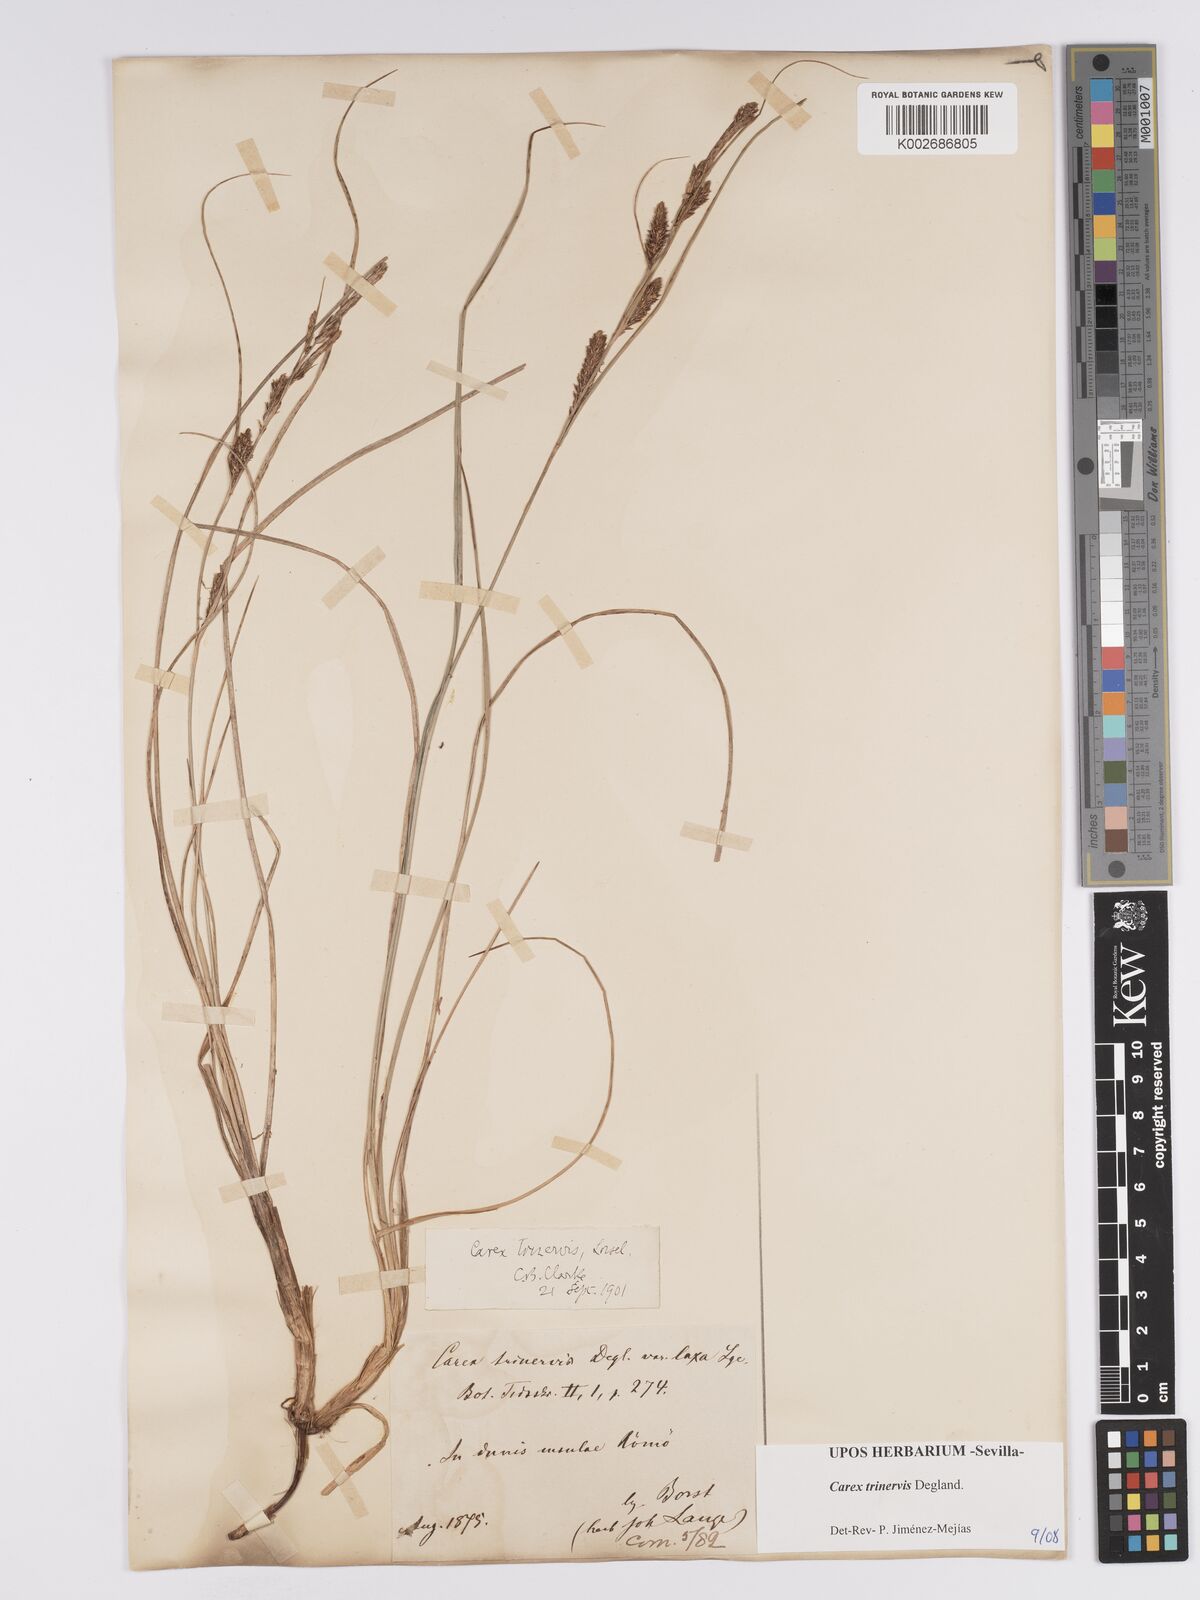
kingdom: Plantae
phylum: Tracheophyta
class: Liliopsida
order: Poales
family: Cyperaceae
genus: Carex
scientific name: Carex trinervis
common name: Three-nerved sedge
